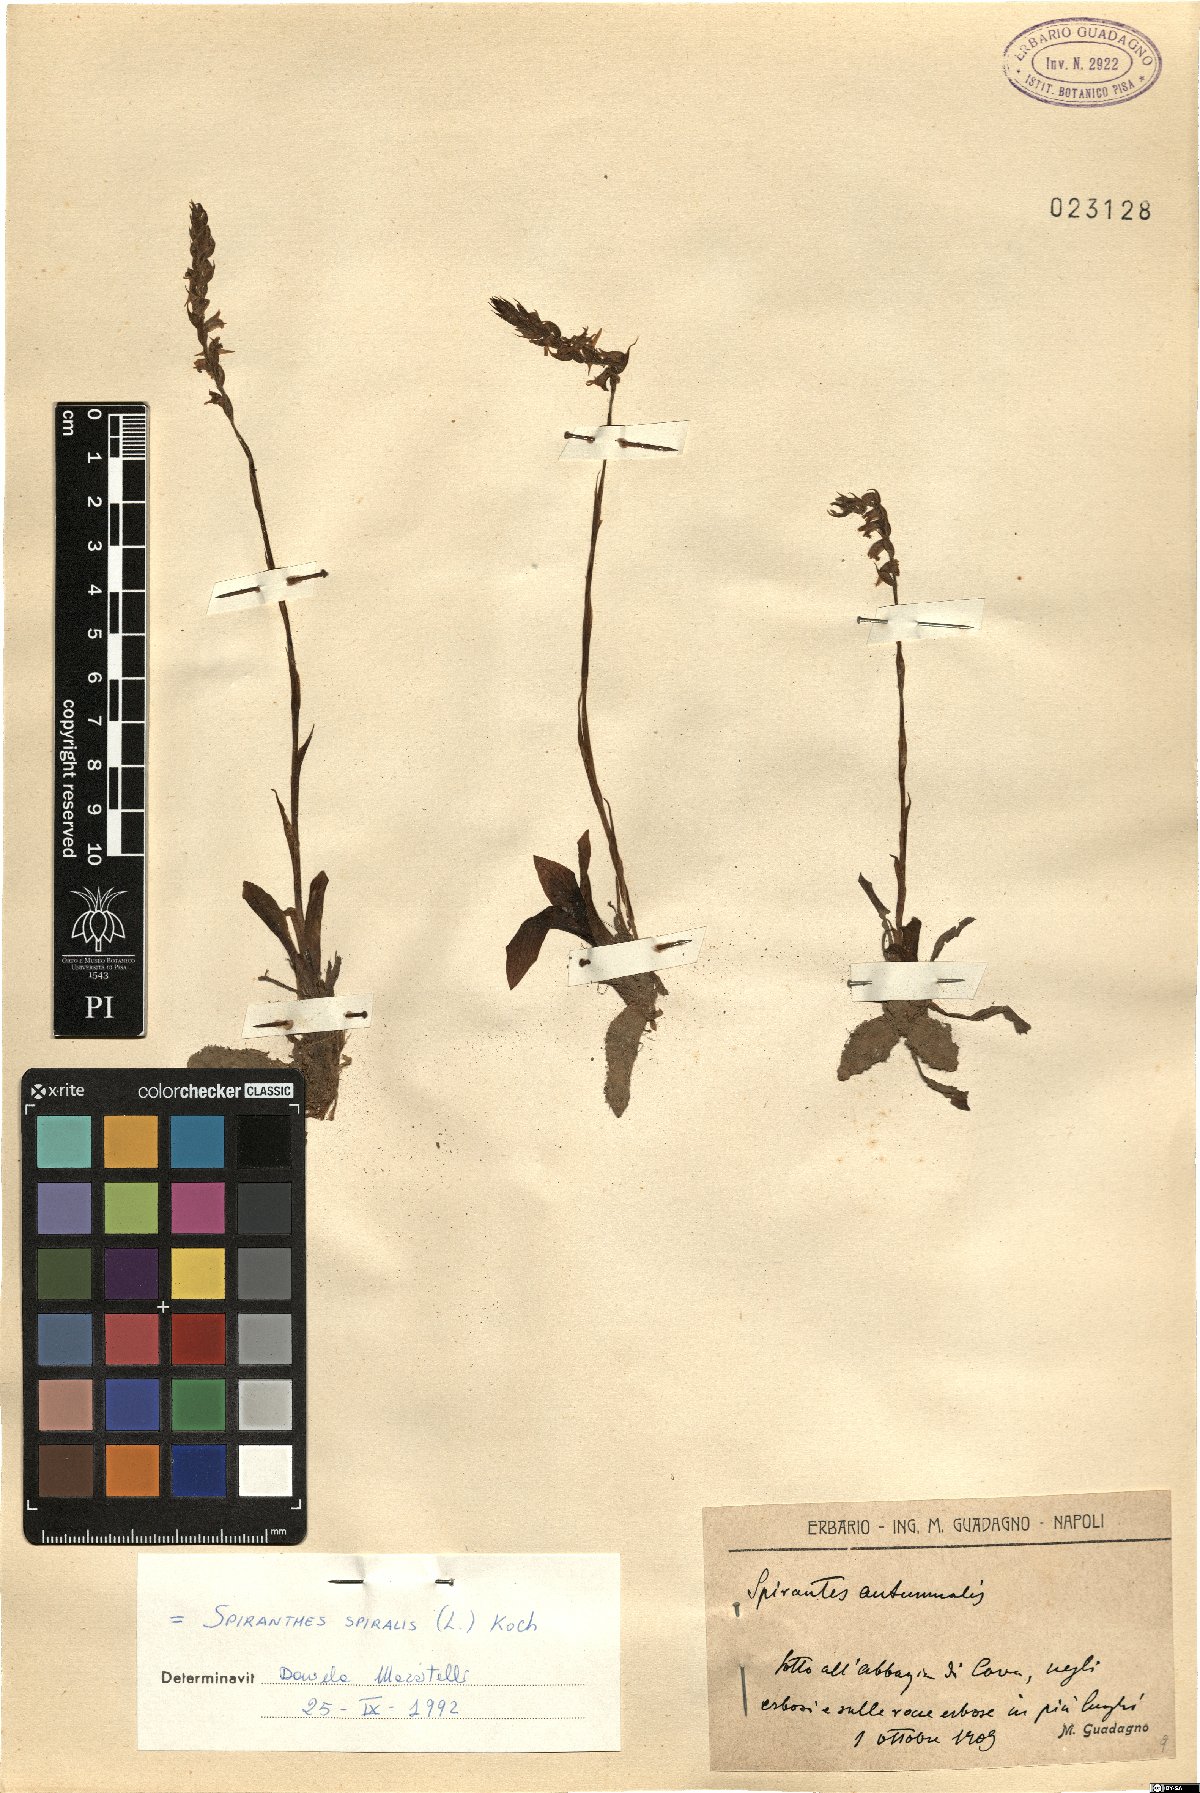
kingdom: Plantae
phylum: Tracheophyta
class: Liliopsida
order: Asparagales
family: Orchidaceae
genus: Spiranthes
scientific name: Spiranthes spiralis
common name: Autumn lady's-tresses
